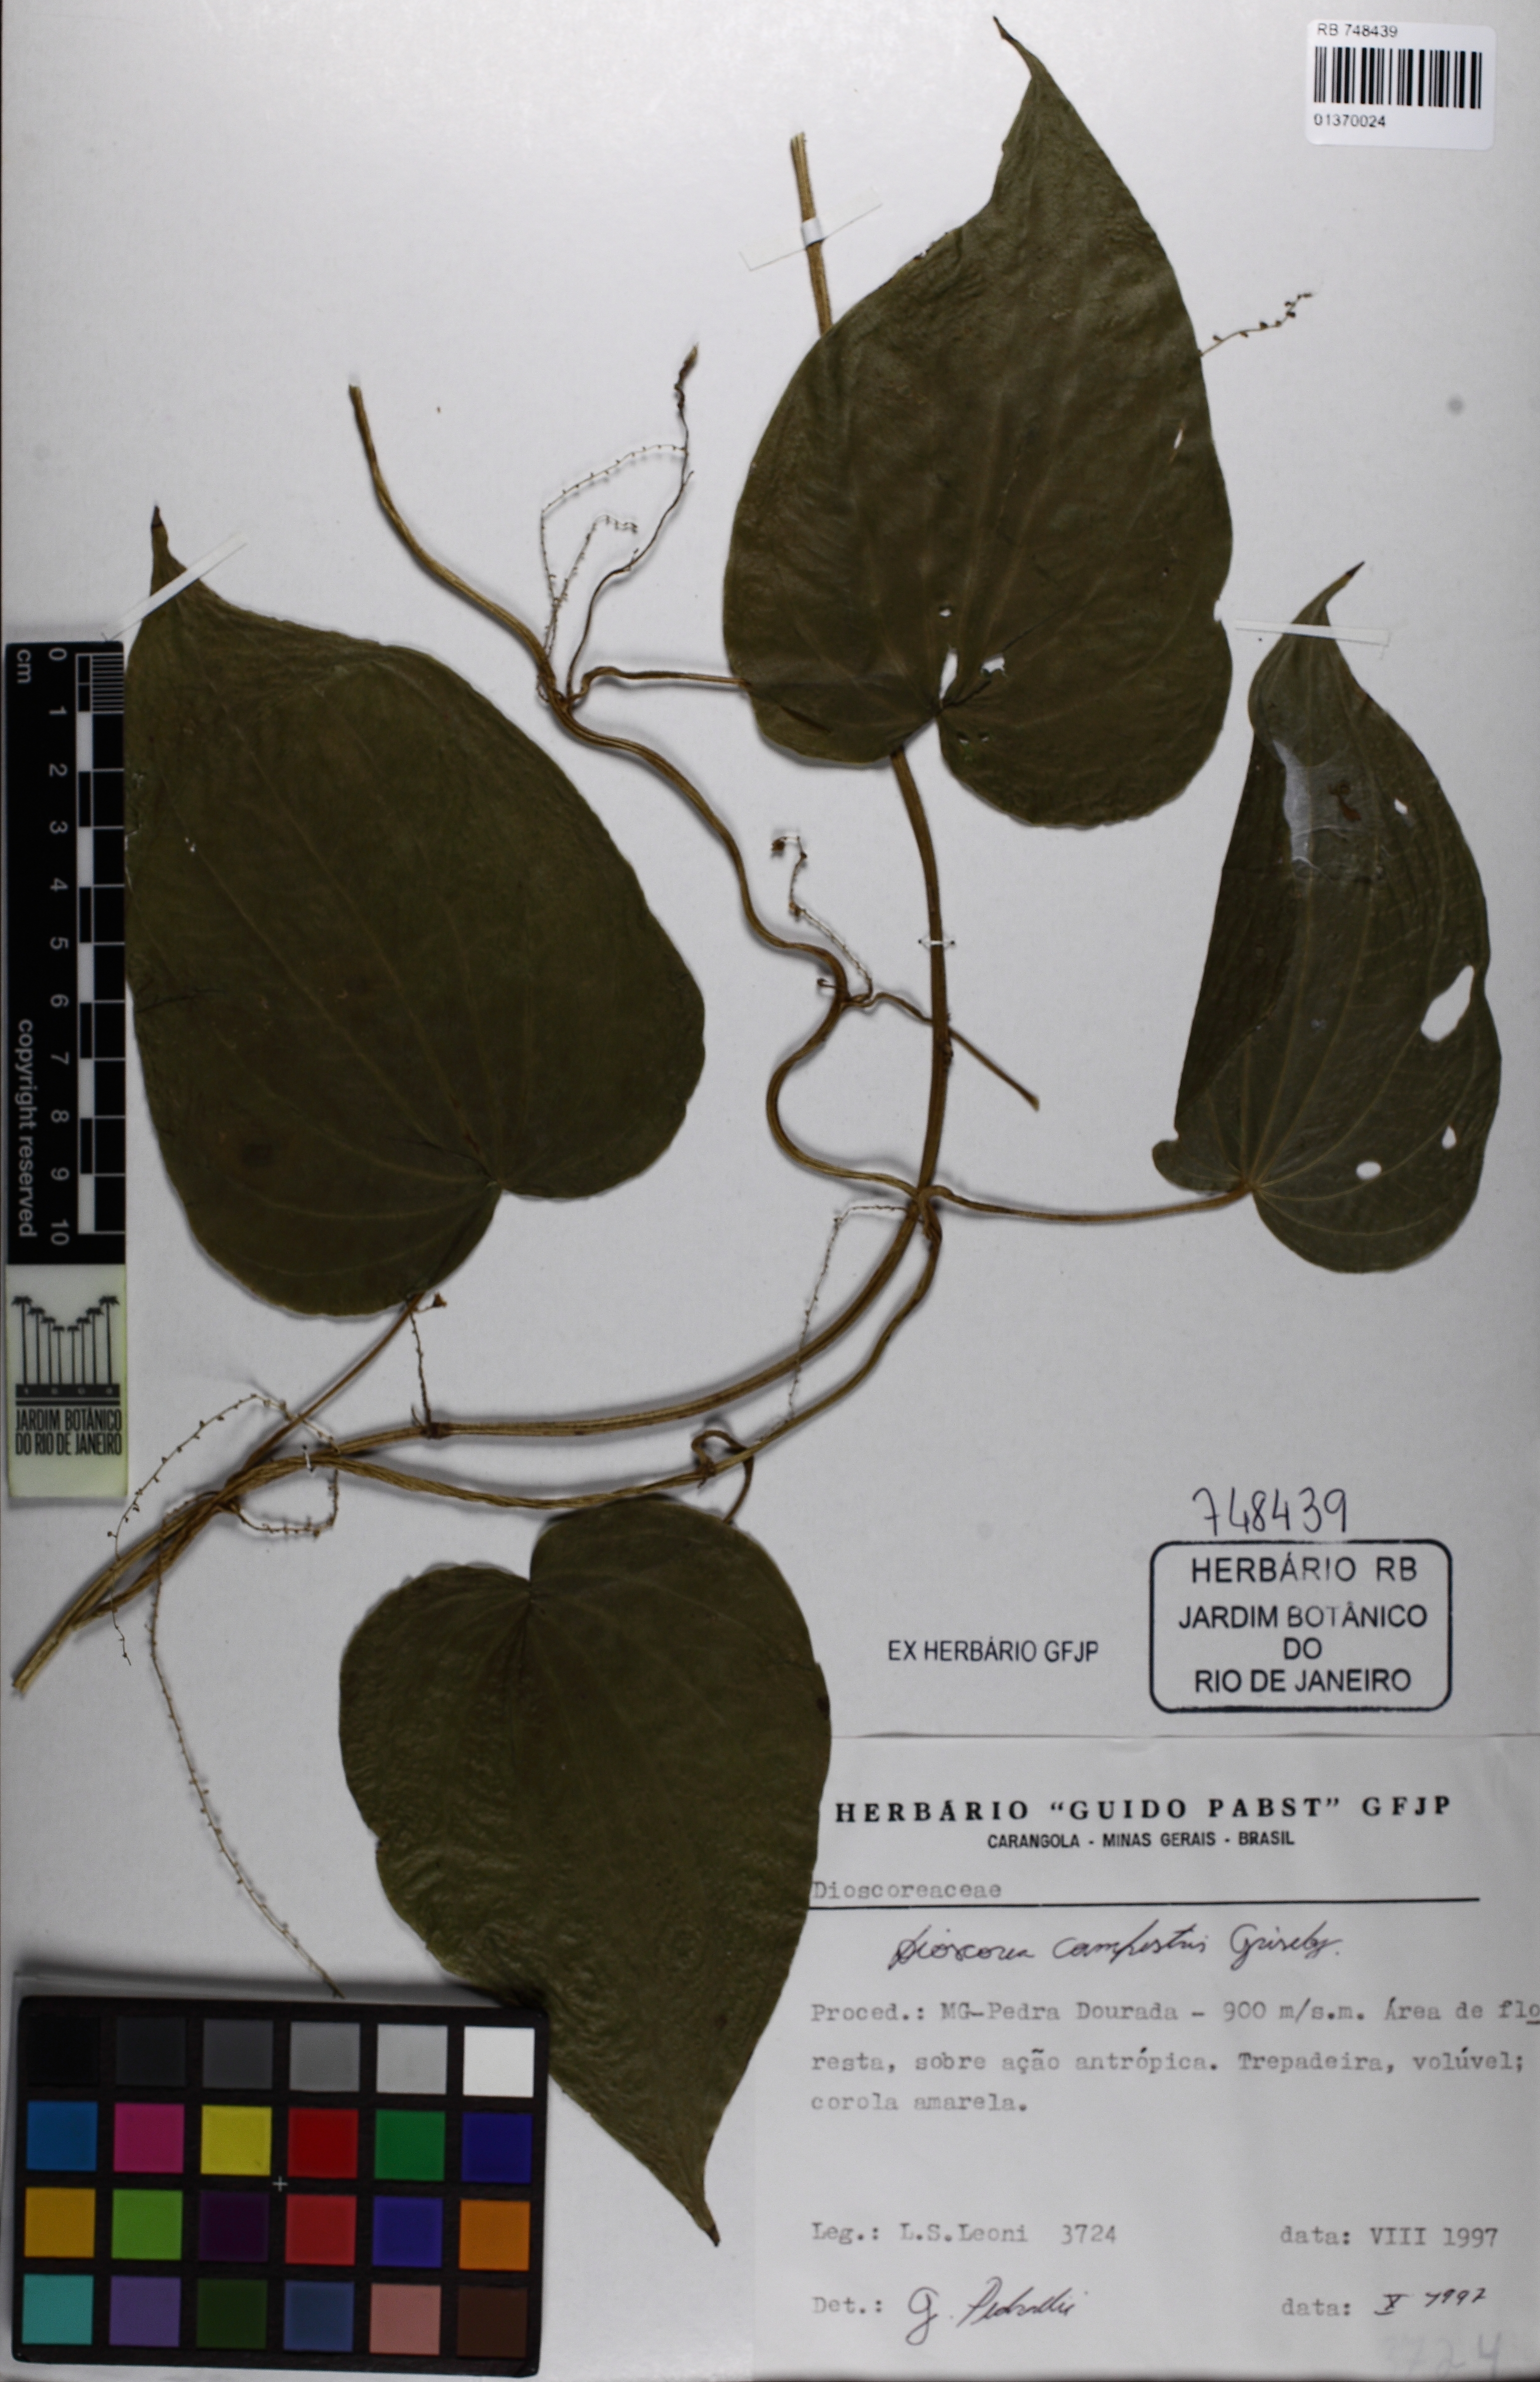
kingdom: Plantae
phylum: Tracheophyta
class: Liliopsida
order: Dioscoreales
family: Dioscoreaceae
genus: Dioscorea
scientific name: Dioscorea campestris
